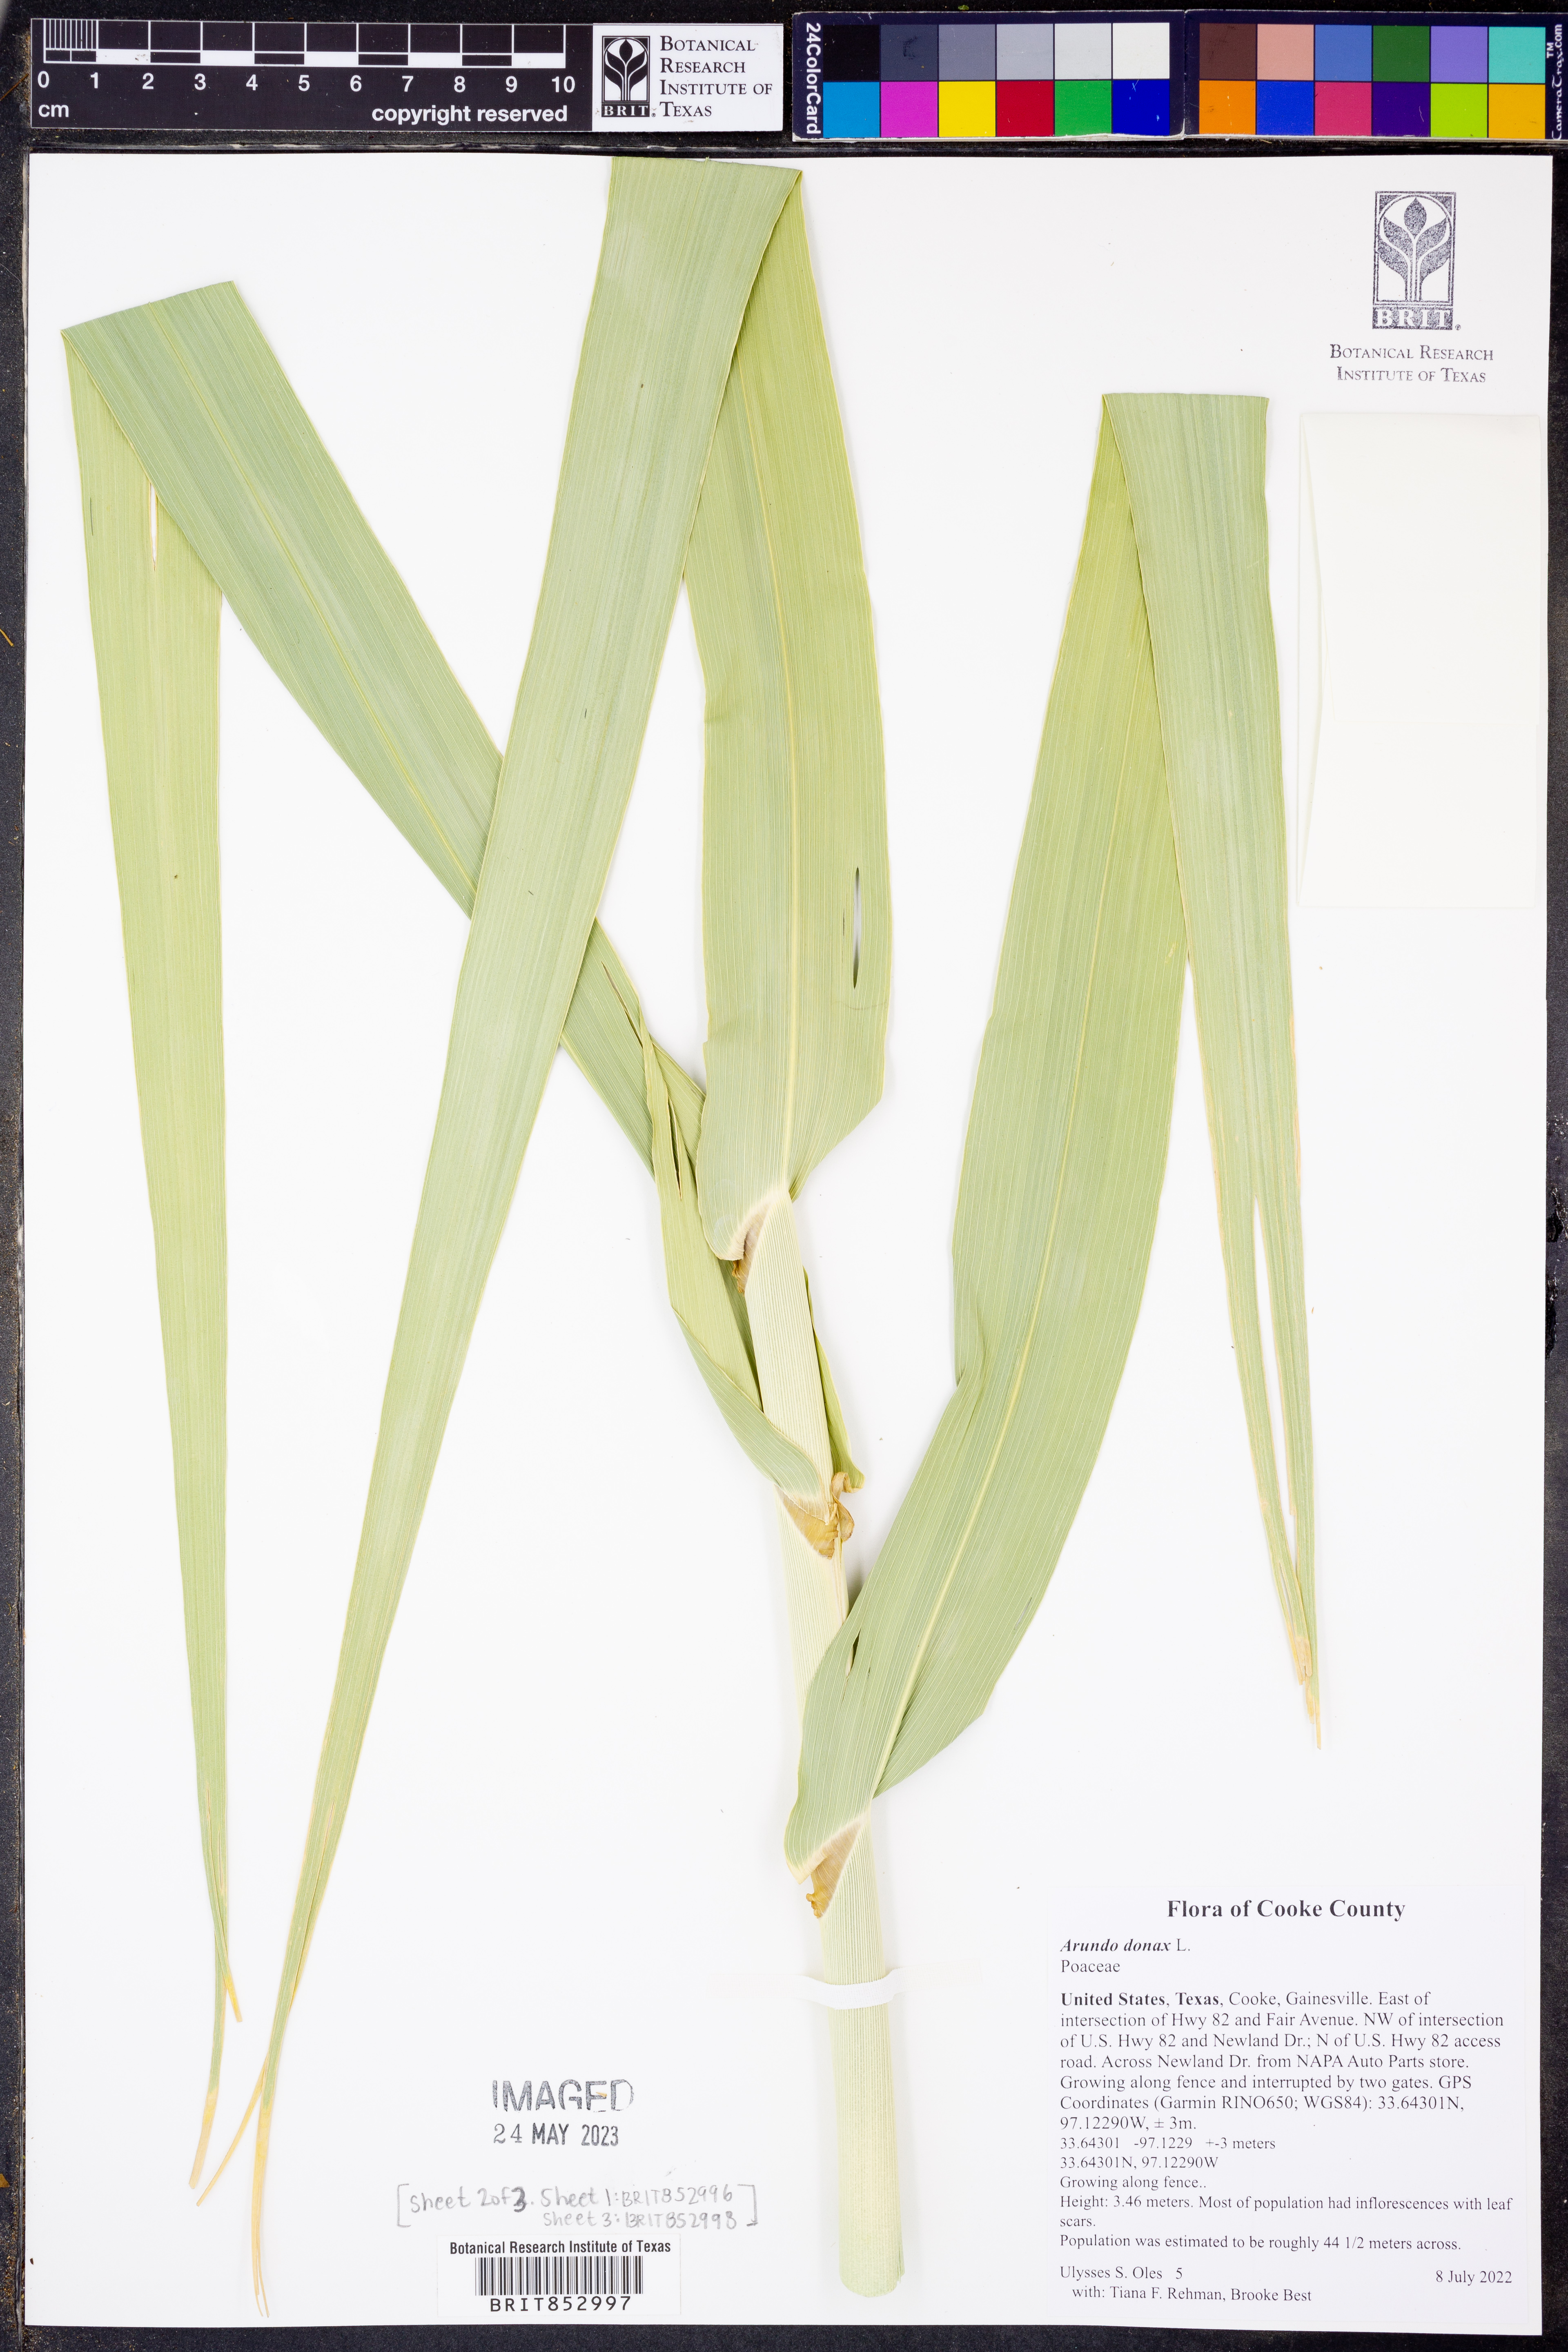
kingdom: Plantae
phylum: Tracheophyta
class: Liliopsida
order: Poales
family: Poaceae
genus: Arundo
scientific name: Arundo donax
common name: Giant reed
